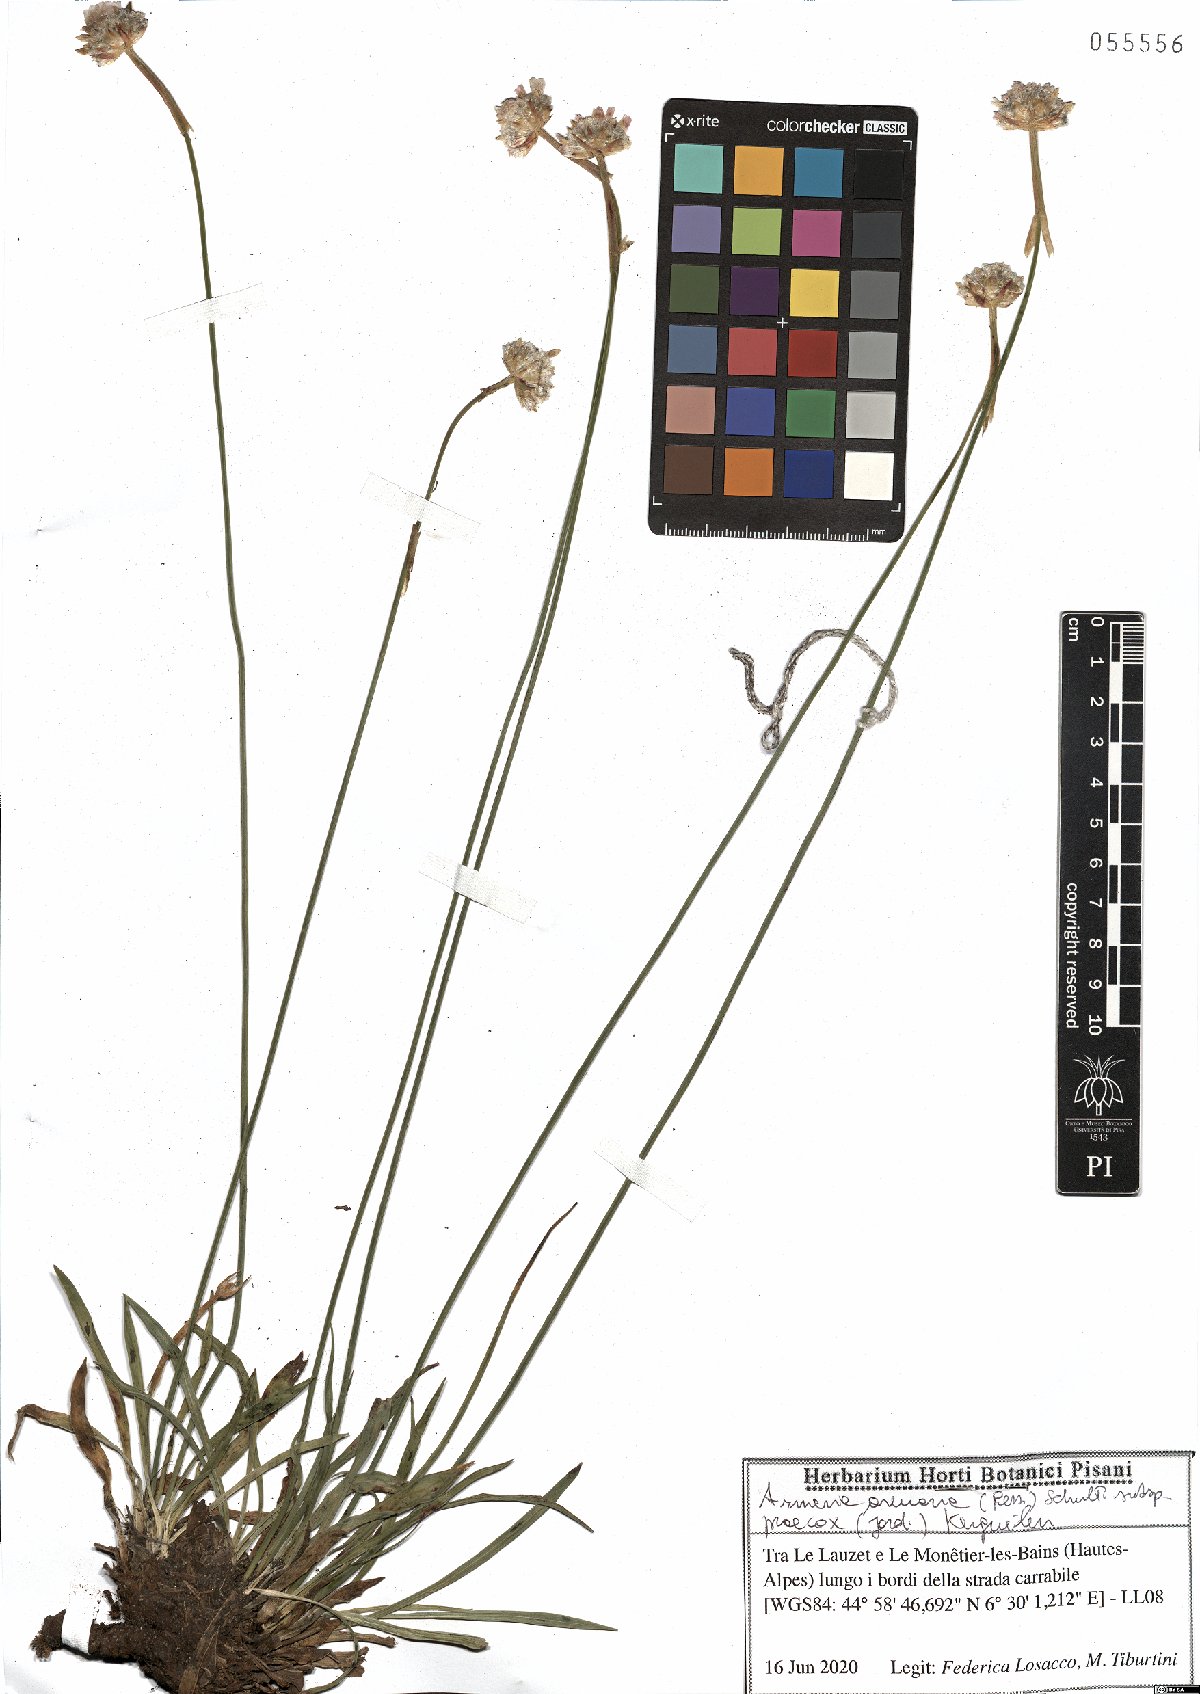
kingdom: Plantae
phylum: Tracheophyta
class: Magnoliopsida
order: Caryophyllales
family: Plumbaginaceae
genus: Armeria
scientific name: Armeria arenaria
